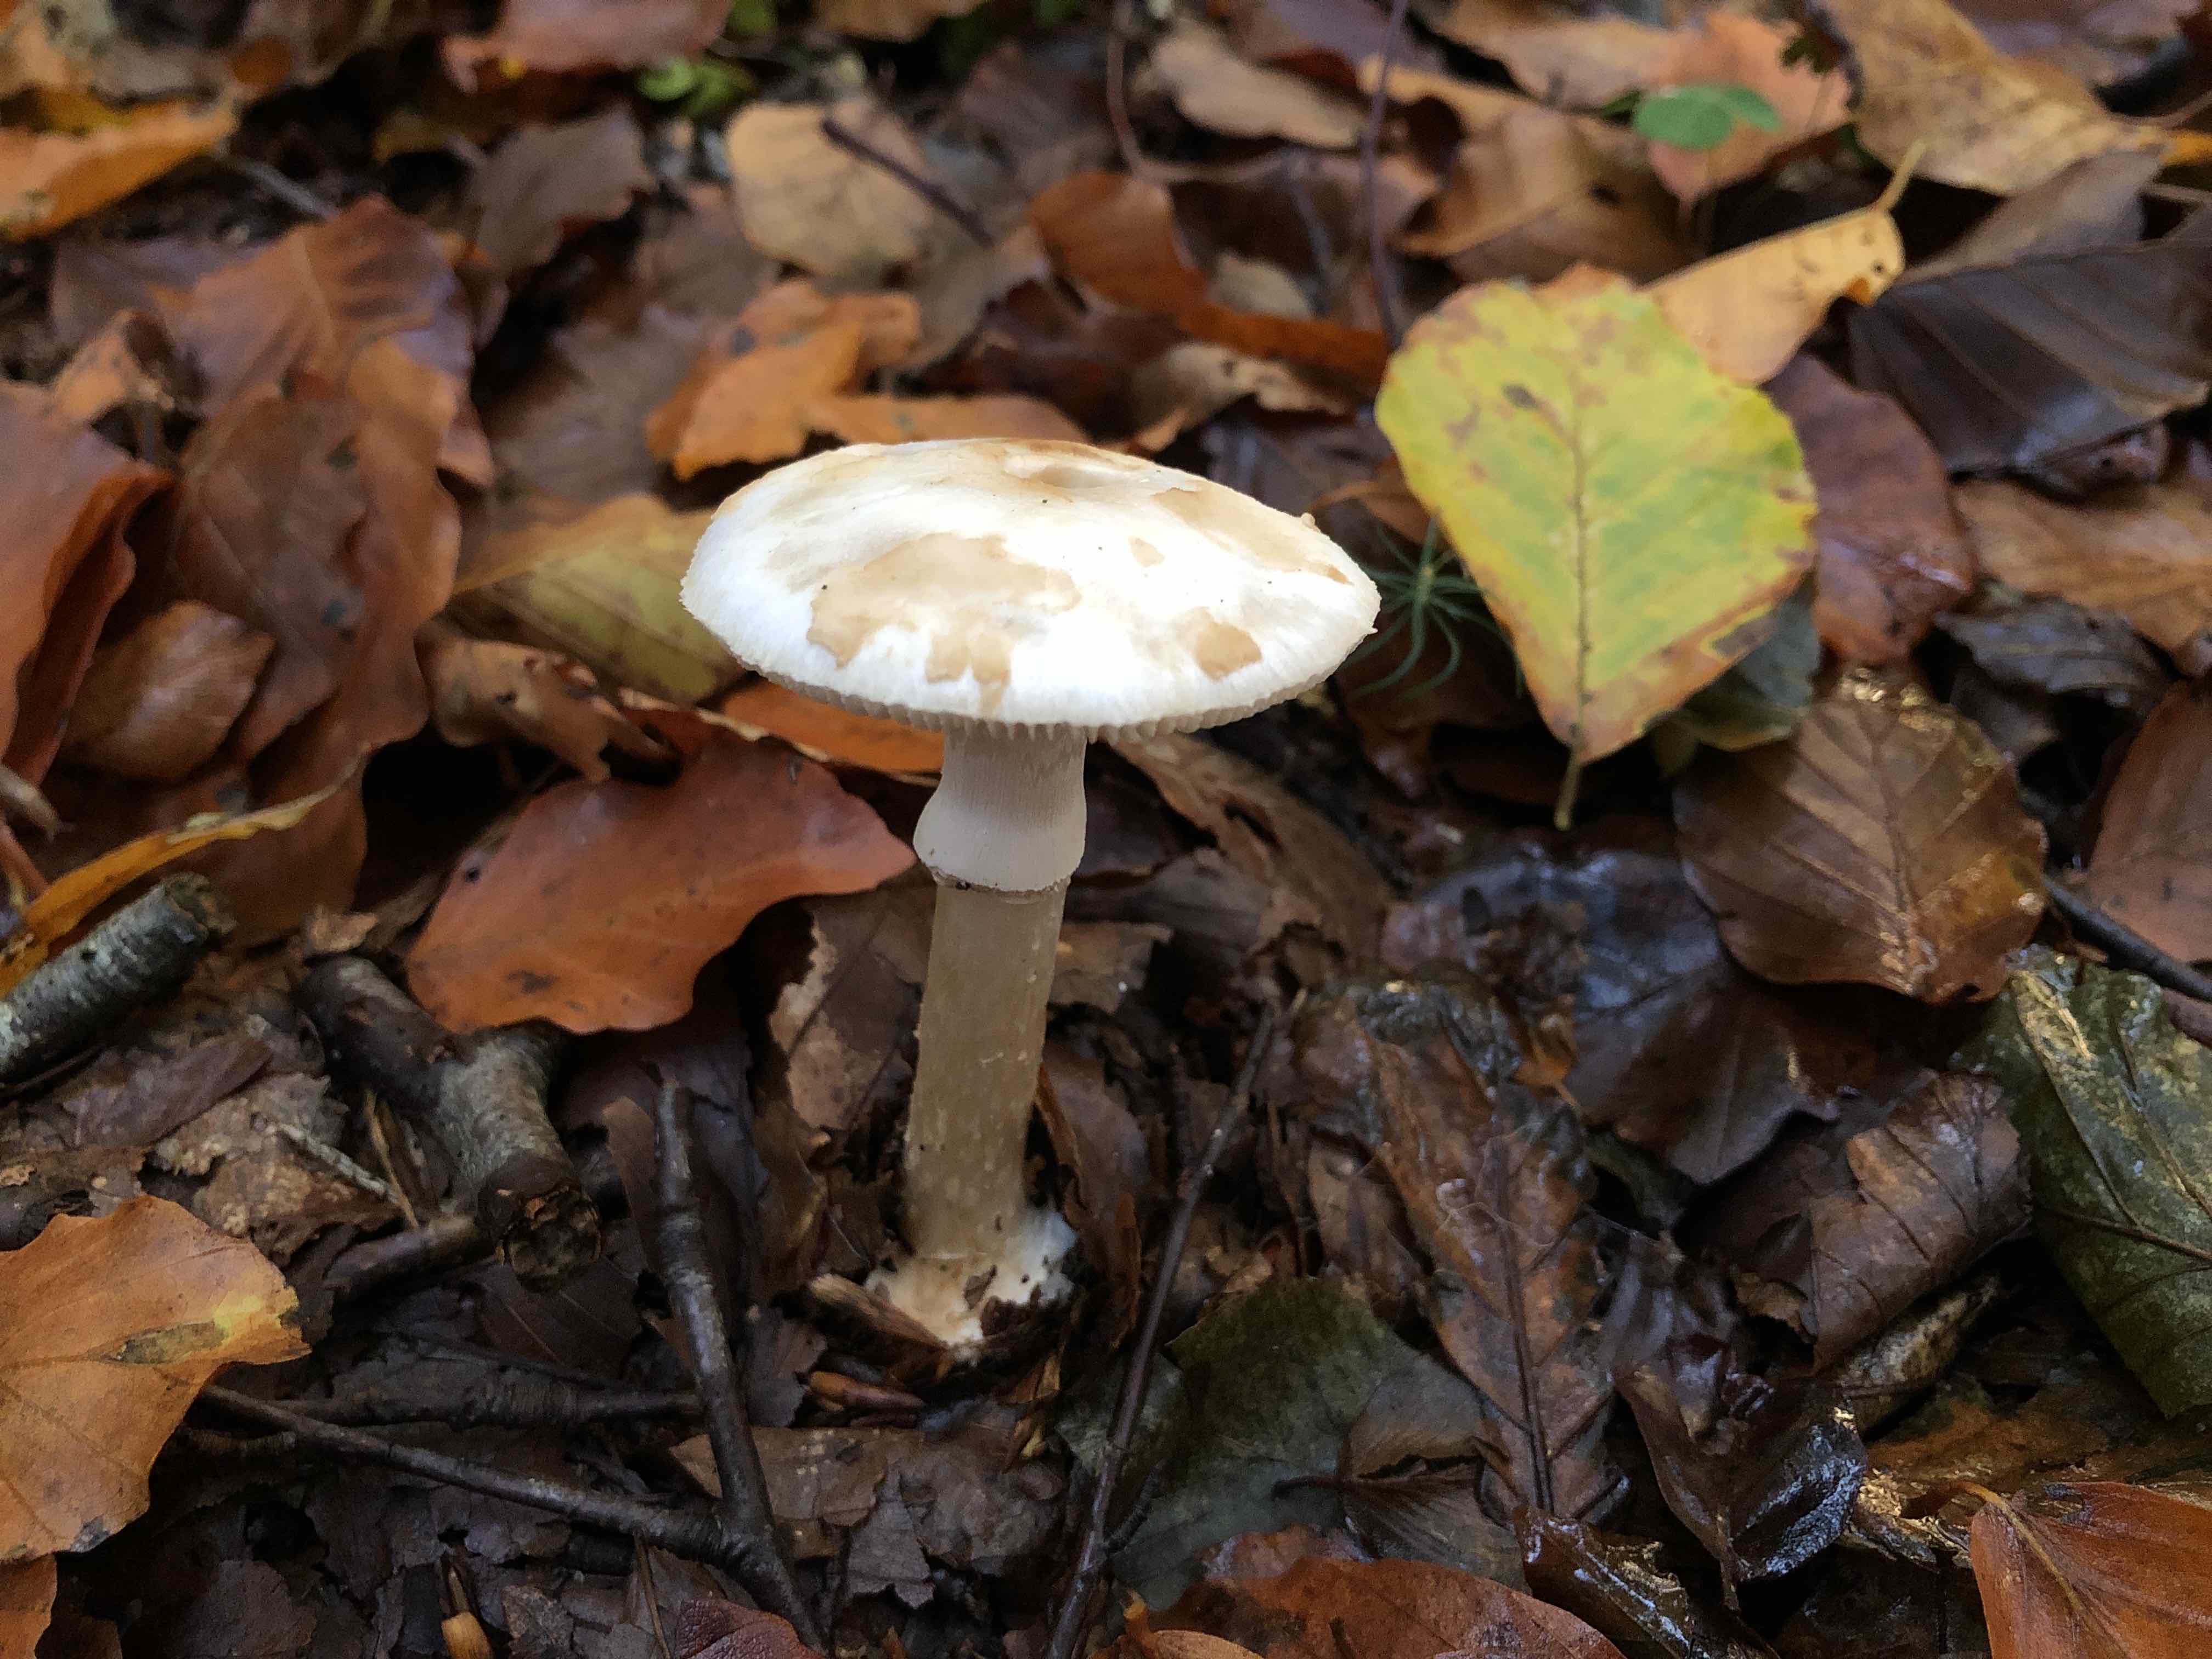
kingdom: Fungi
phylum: Basidiomycota
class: Agaricomycetes
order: Agaricales
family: Amanitaceae
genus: Amanita
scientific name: Amanita citrina
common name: kugleknoldet fluesvamp
